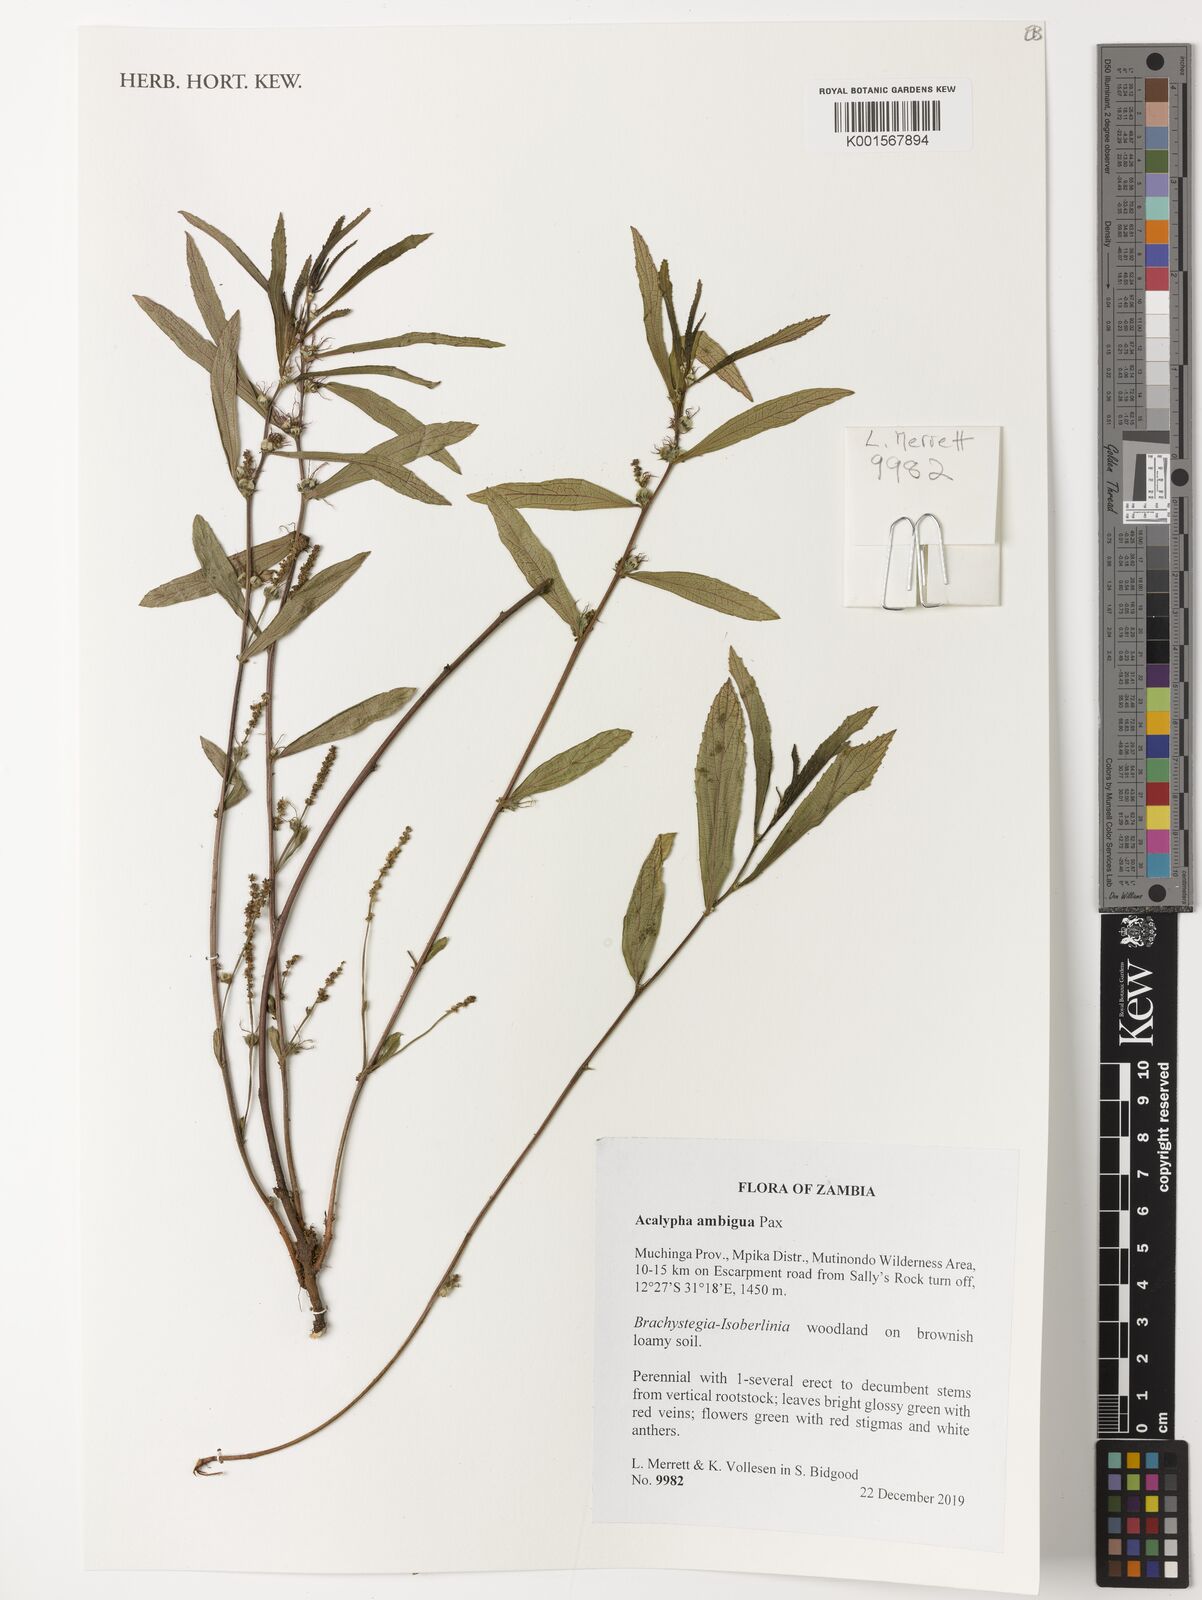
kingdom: Plantae
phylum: Tracheophyta
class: Magnoliopsida
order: Malpighiales
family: Euphorbiaceae
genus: Acalypha
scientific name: Acalypha ambigua
